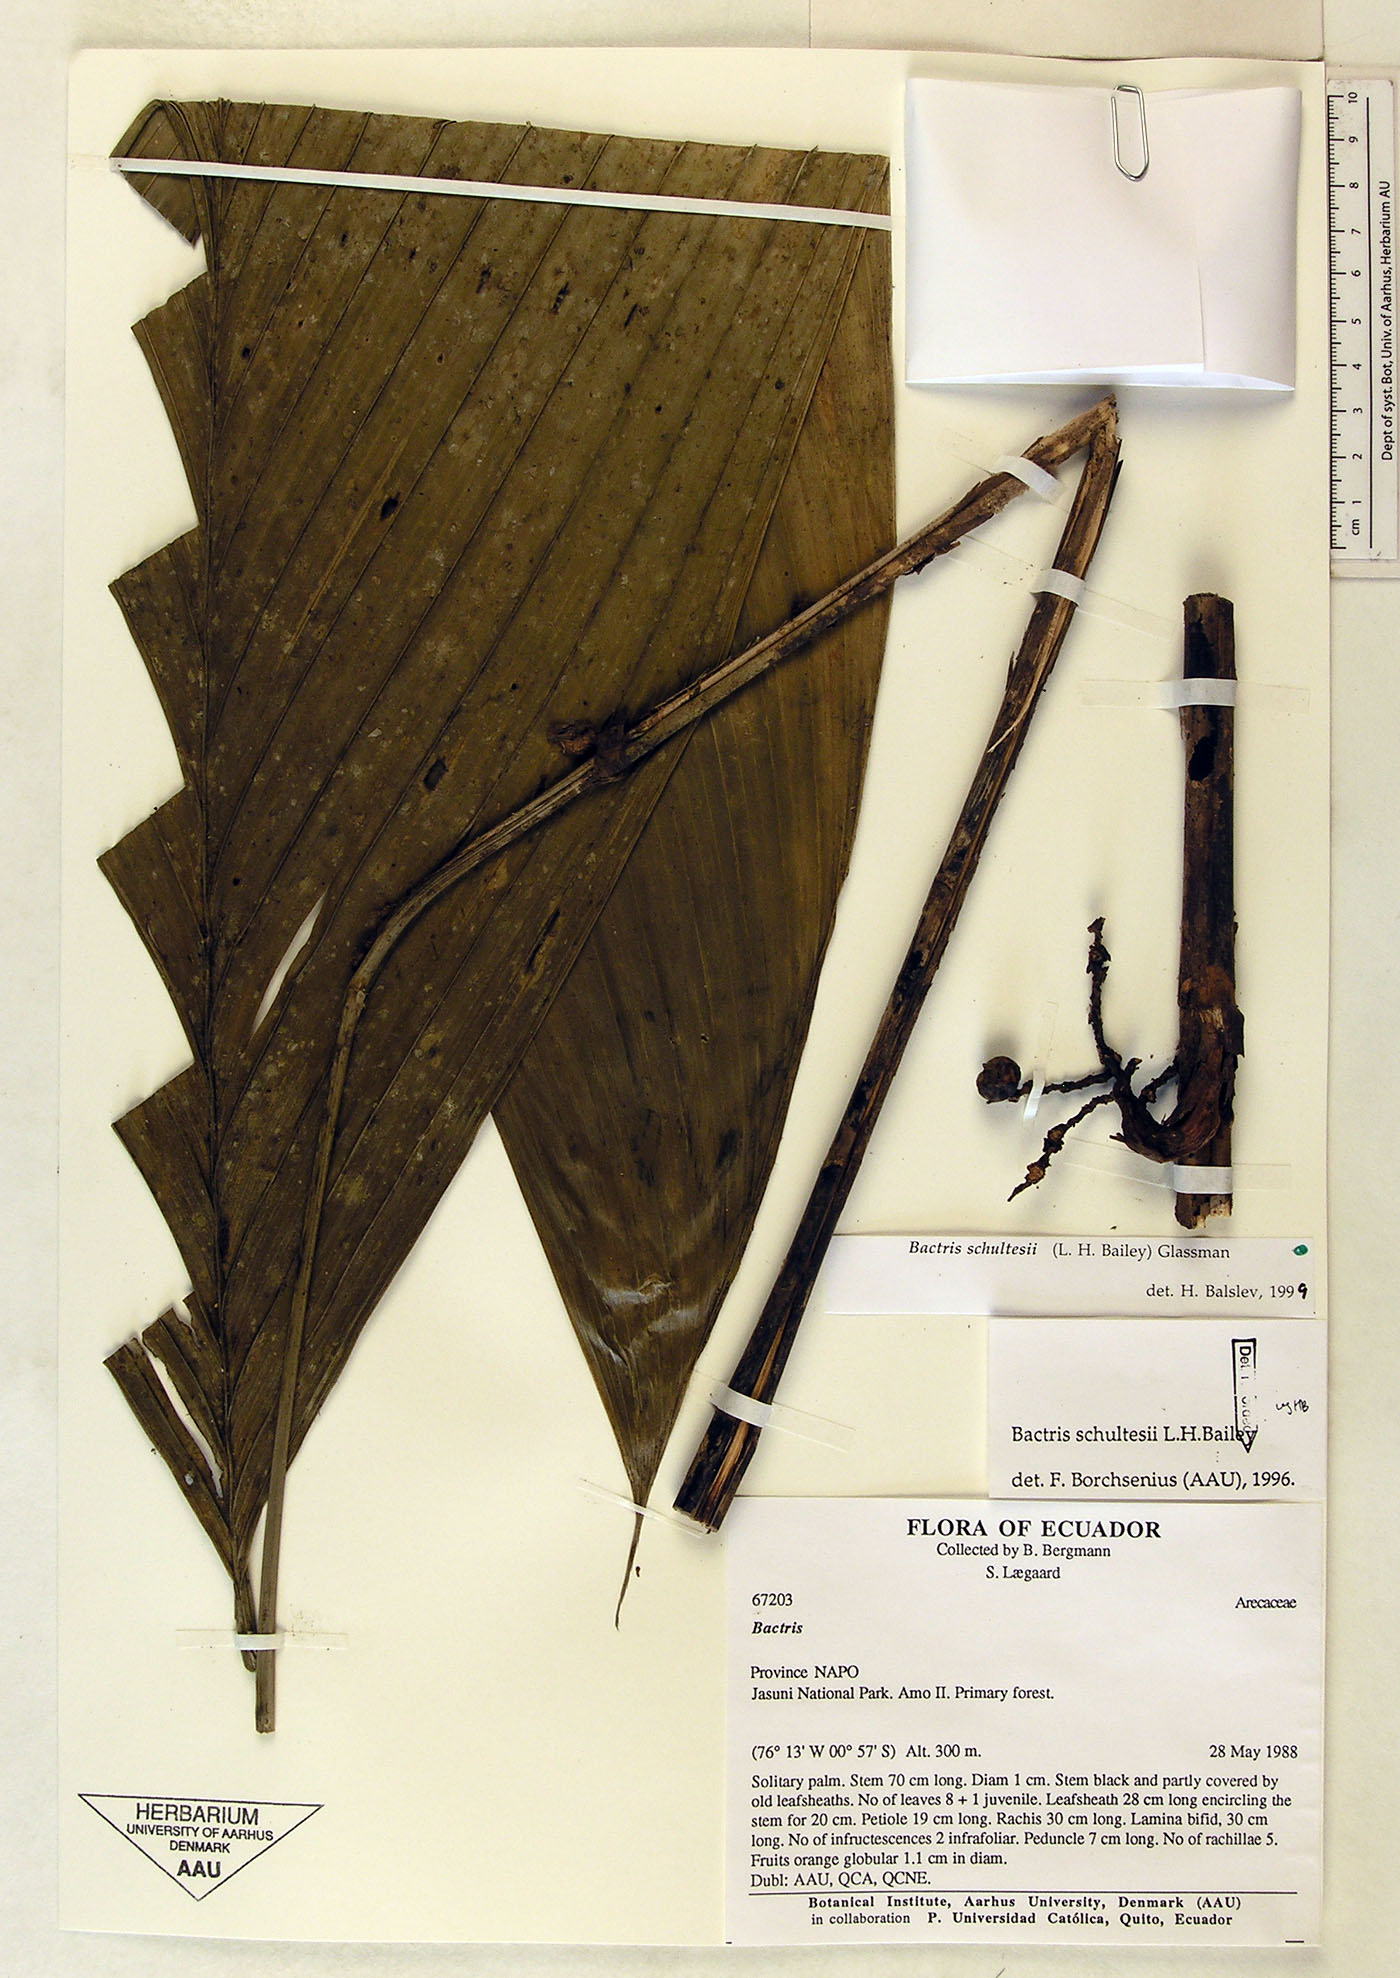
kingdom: Plantae
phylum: Tracheophyta
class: Liliopsida
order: Arecales
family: Arecaceae
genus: Bactris
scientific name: Bactris schultesii
